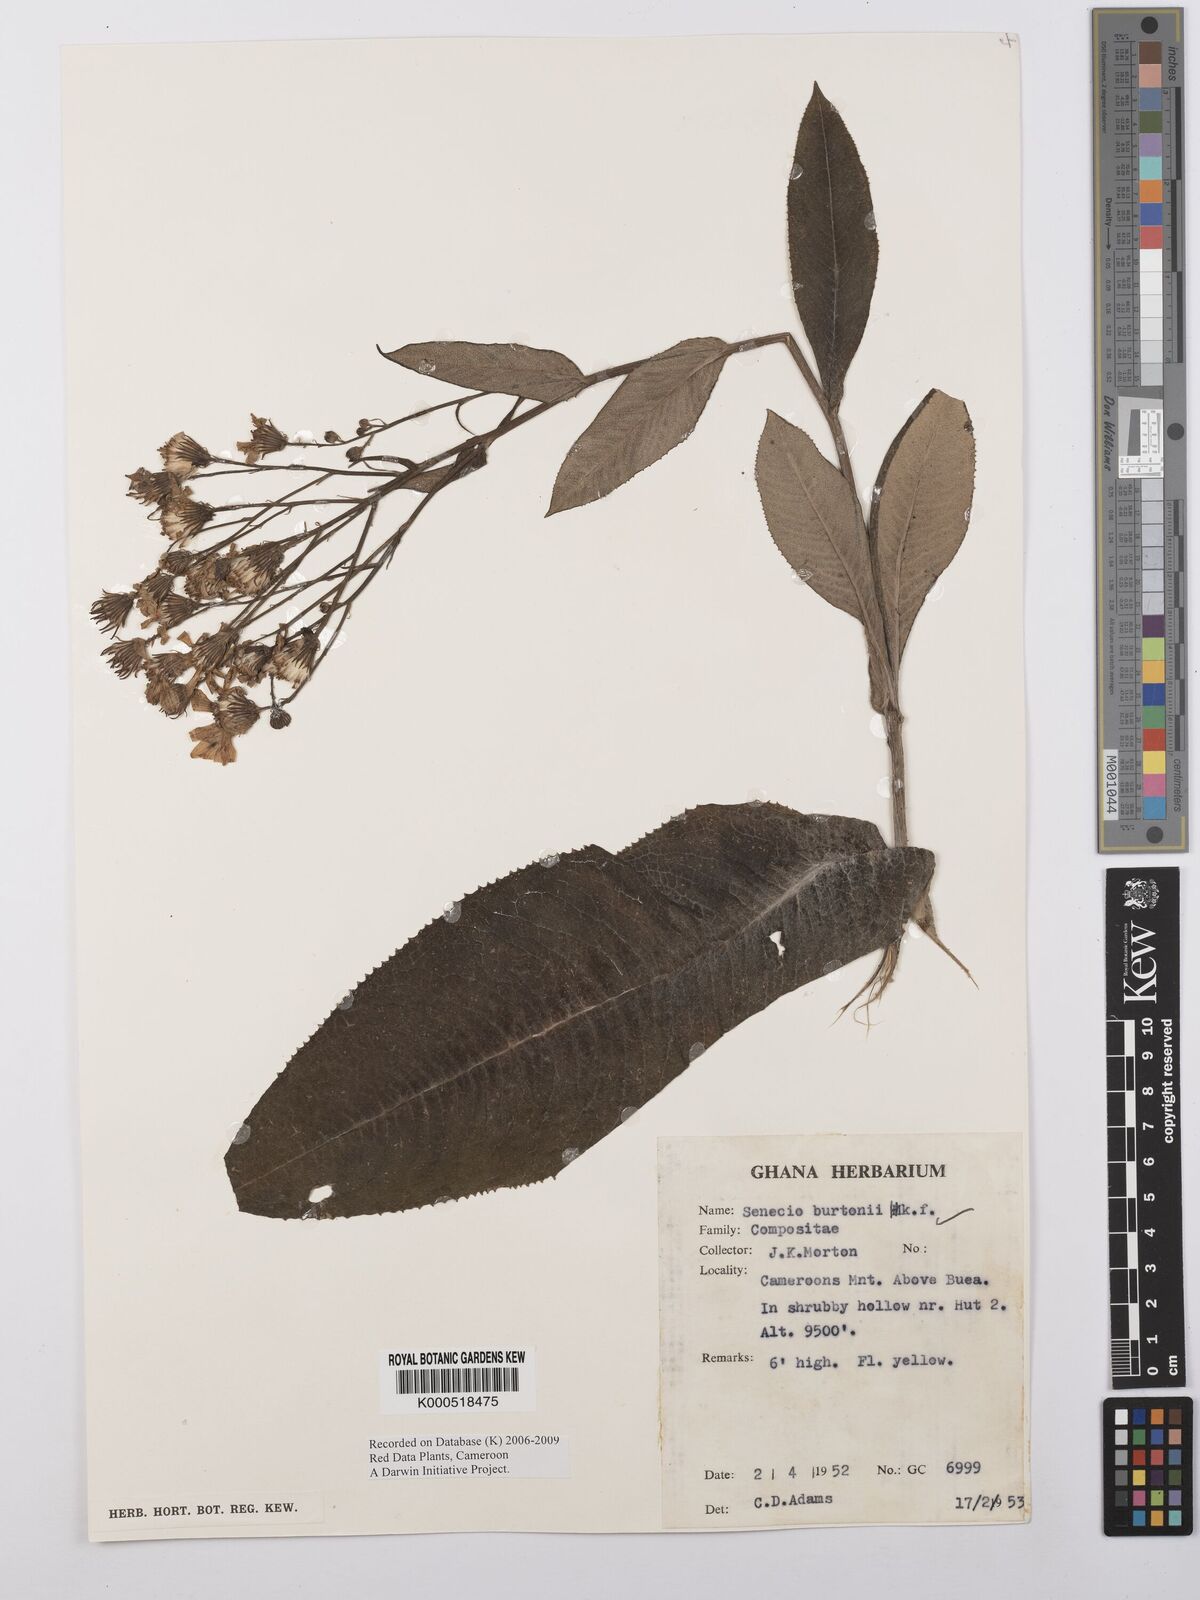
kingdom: Plantae
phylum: Tracheophyta
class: Magnoliopsida
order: Asterales
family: Asteraceae
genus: Senecio
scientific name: Senecio burtonii
